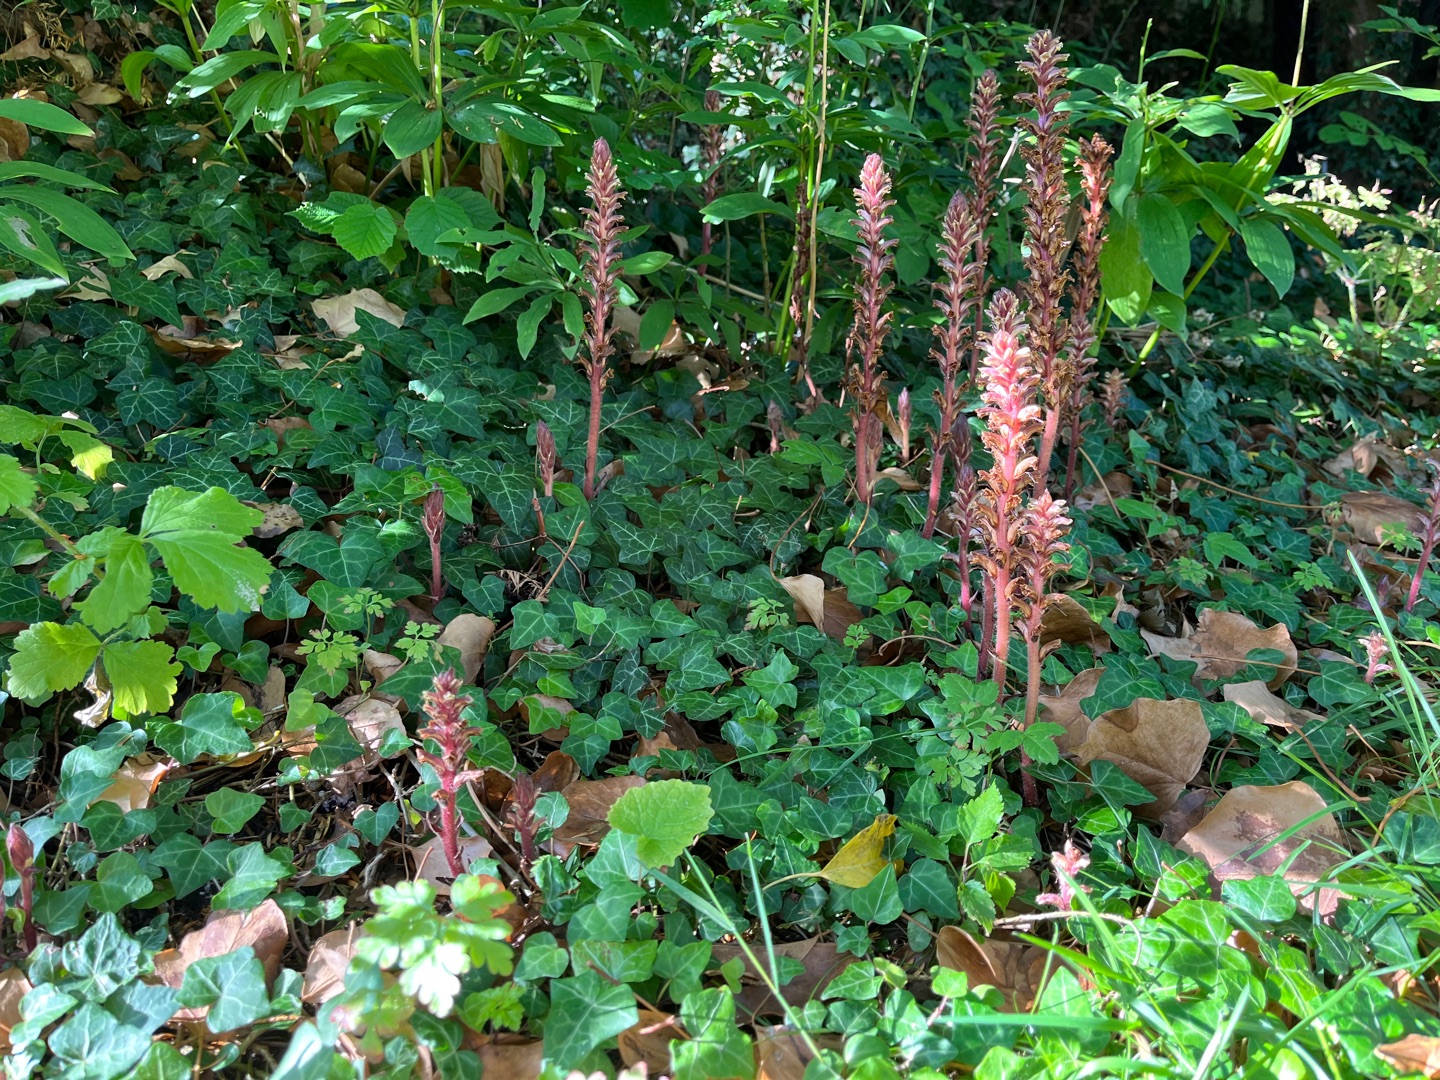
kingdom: Plantae
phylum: Tracheophyta
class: Magnoliopsida
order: Lamiales
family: Orobanchaceae
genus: Orobanche
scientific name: Orobanche hederae
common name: Vedbend-gyvelkvæler
